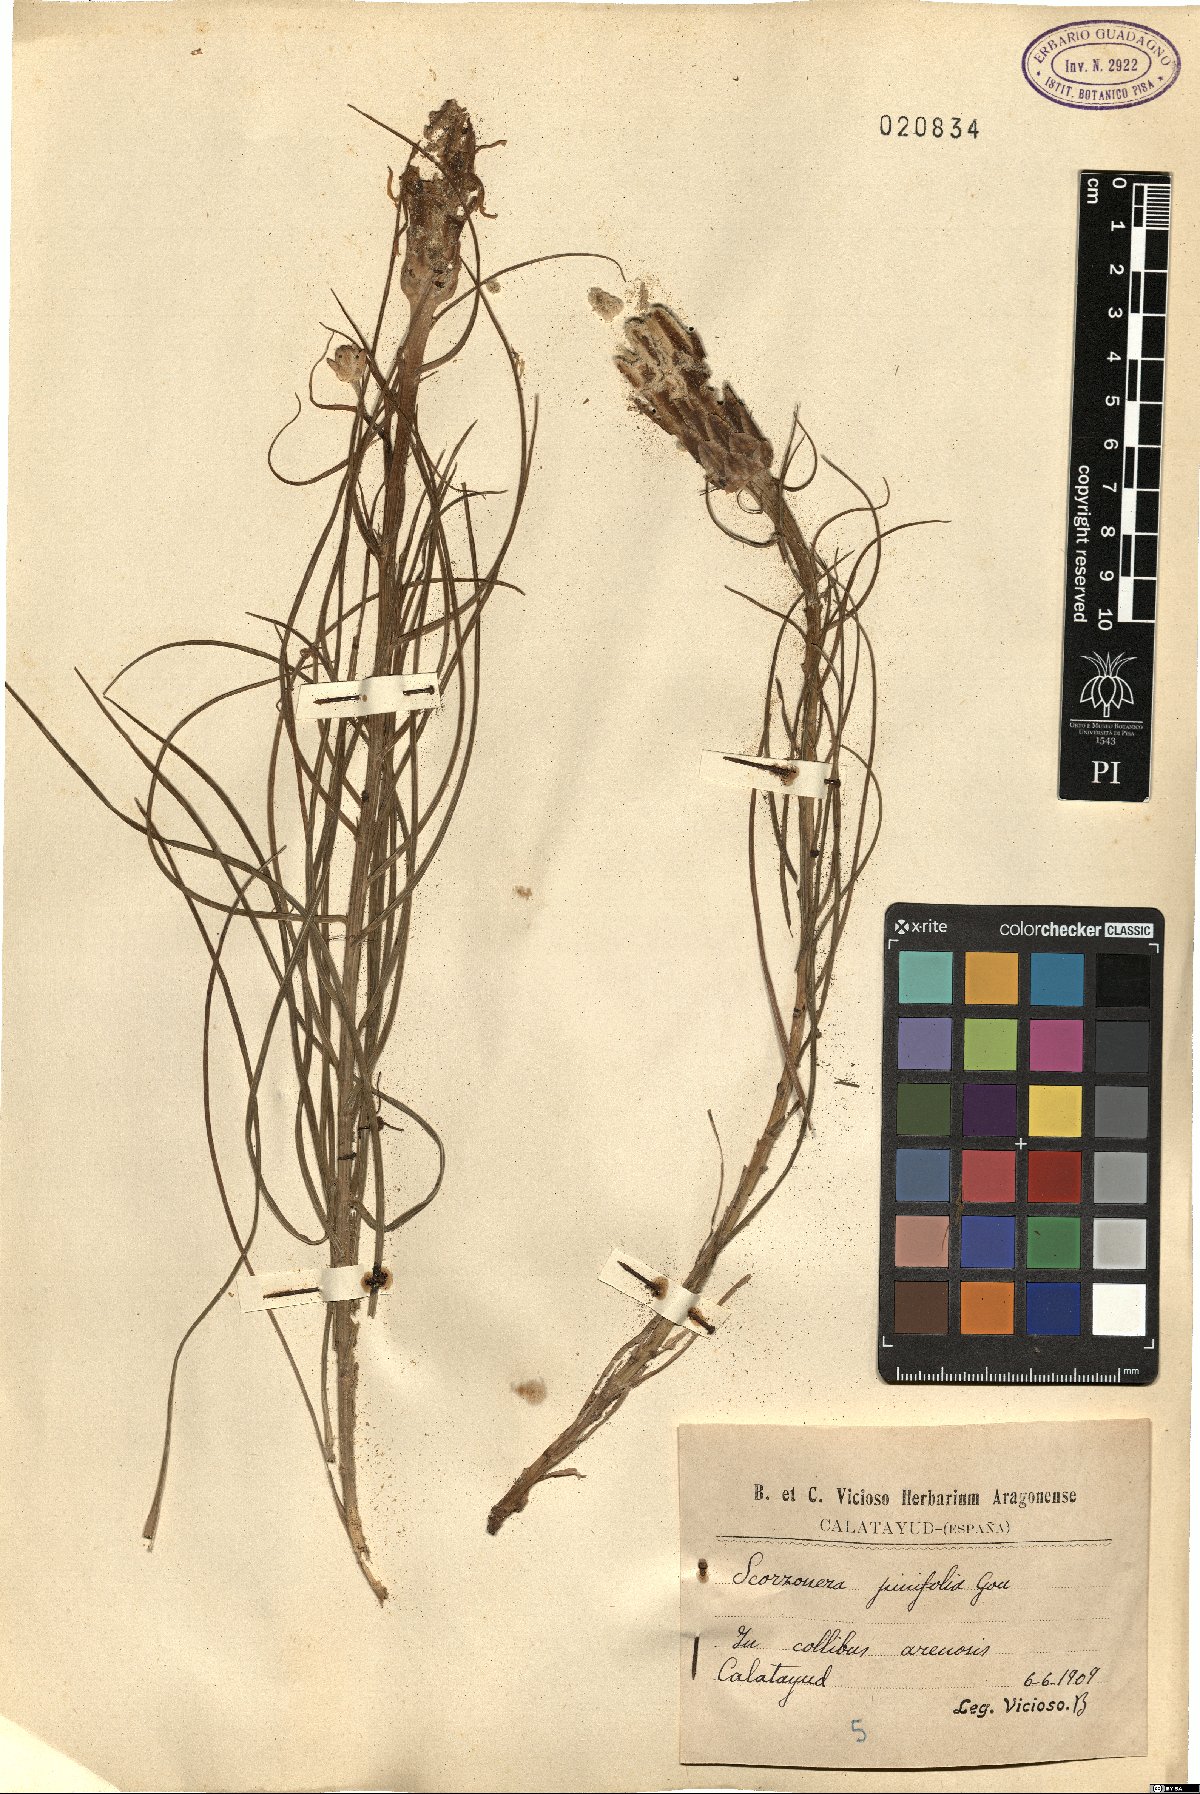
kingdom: Plantae
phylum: Tracheophyta
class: Magnoliopsida
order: Asterales
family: Asteraceae
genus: Scorzonera
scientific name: Scorzonera angustifolia
